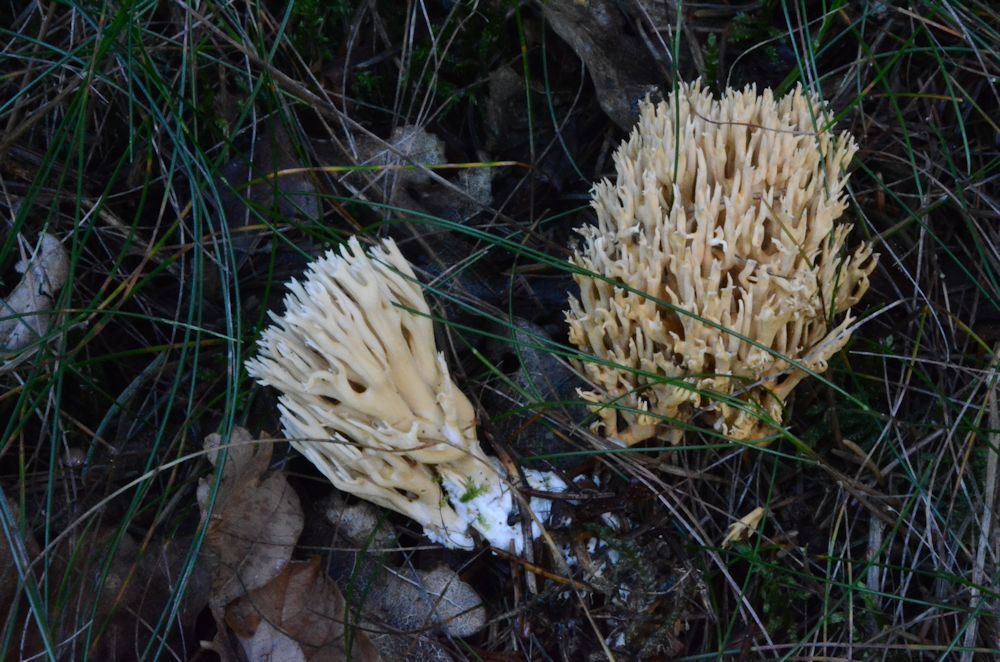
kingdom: Fungi
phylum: Basidiomycota
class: Agaricomycetes
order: Gomphales
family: Gomphaceae
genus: Phaeoclavulina
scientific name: Phaeoclavulina eumorpha
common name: gran-koralsvamp
